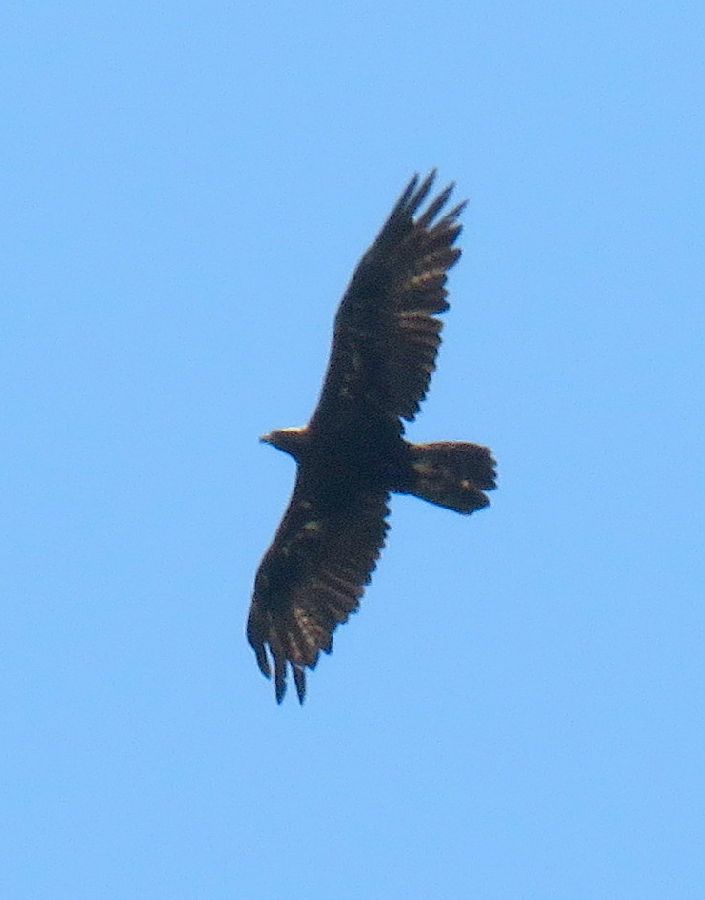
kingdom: Animalia
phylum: Chordata
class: Aves
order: Accipitriformes
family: Accipitridae
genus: Aquila
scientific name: Aquila chrysaetos
